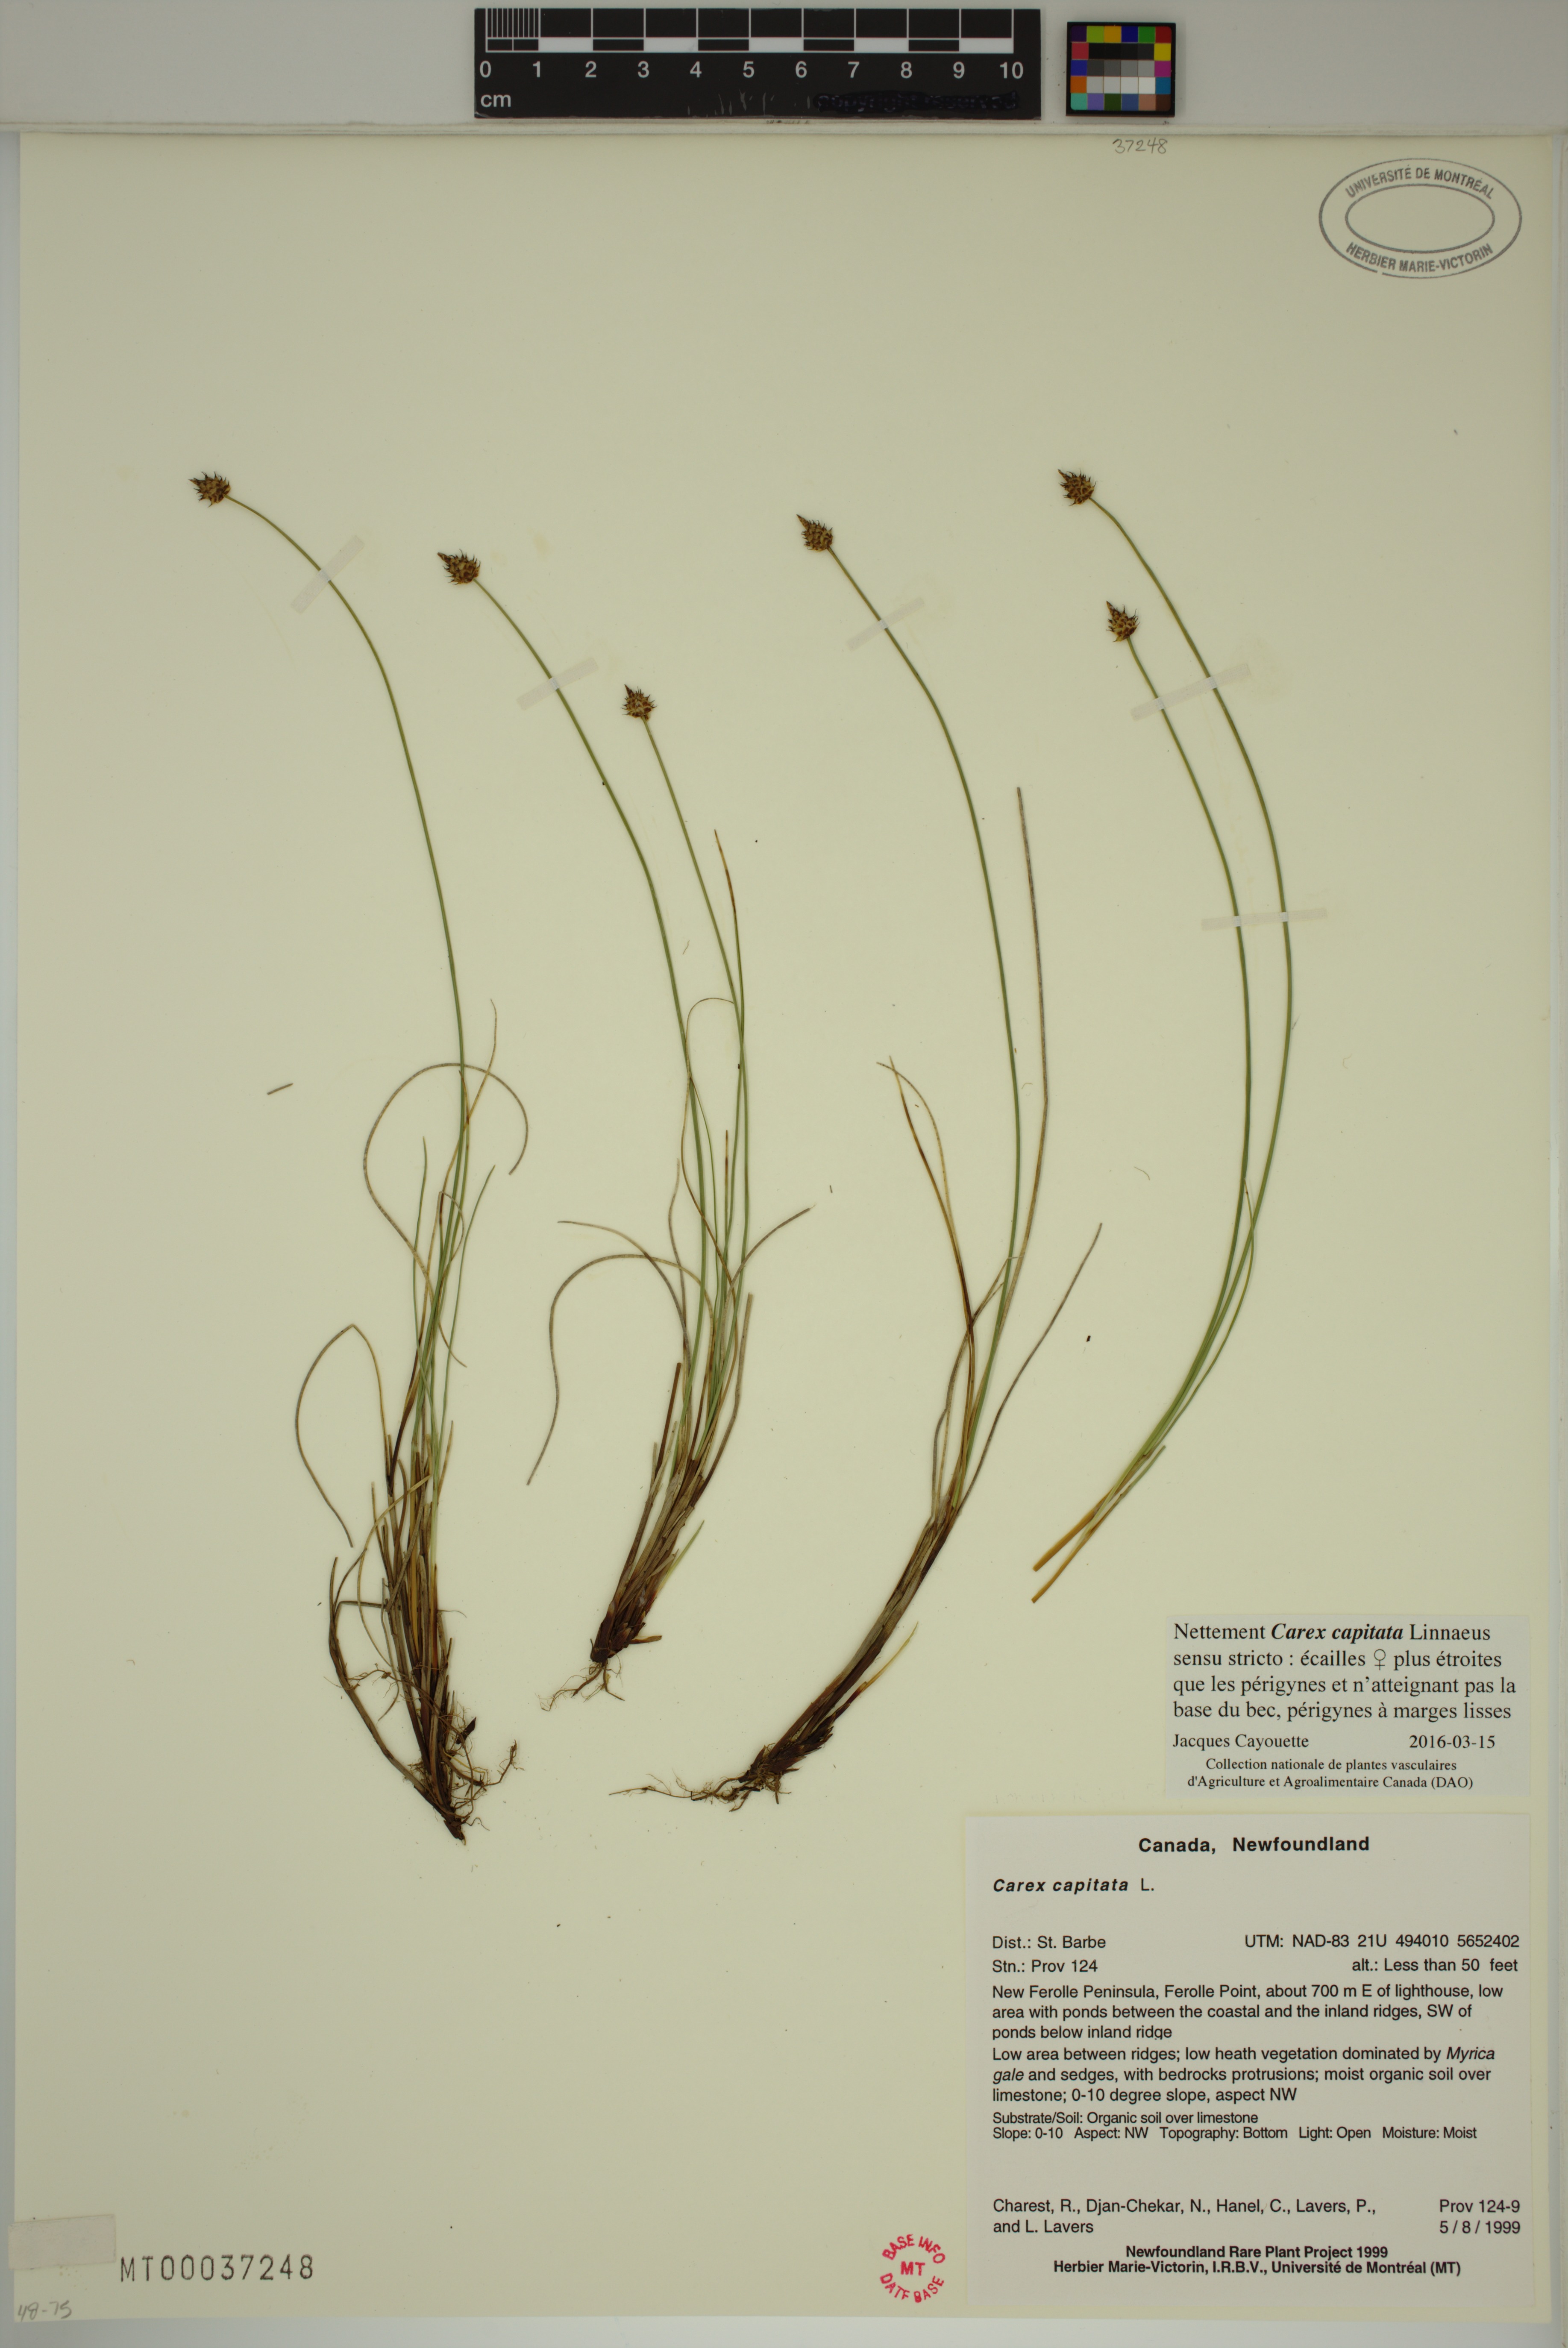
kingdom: Plantae
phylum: Tracheophyta
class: Liliopsida
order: Poales
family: Cyperaceae
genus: Carex
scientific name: Carex capitata
